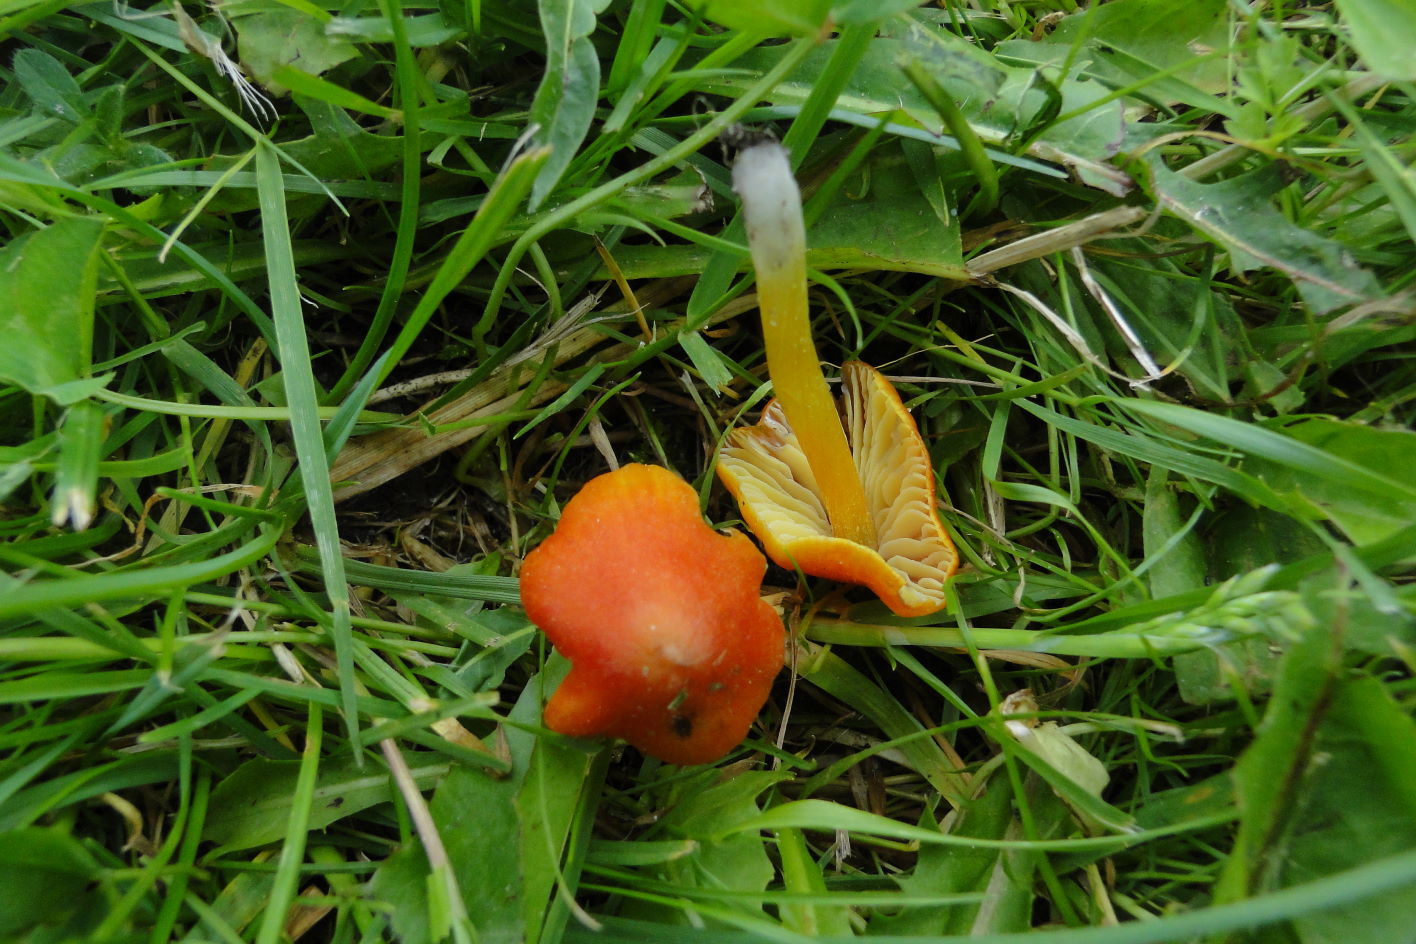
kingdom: Fungi
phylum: Basidiomycota
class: Agaricomycetes
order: Agaricales
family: Hygrophoraceae
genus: Hygrocybe
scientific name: Hygrocybe conica
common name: kegle-vokshat
